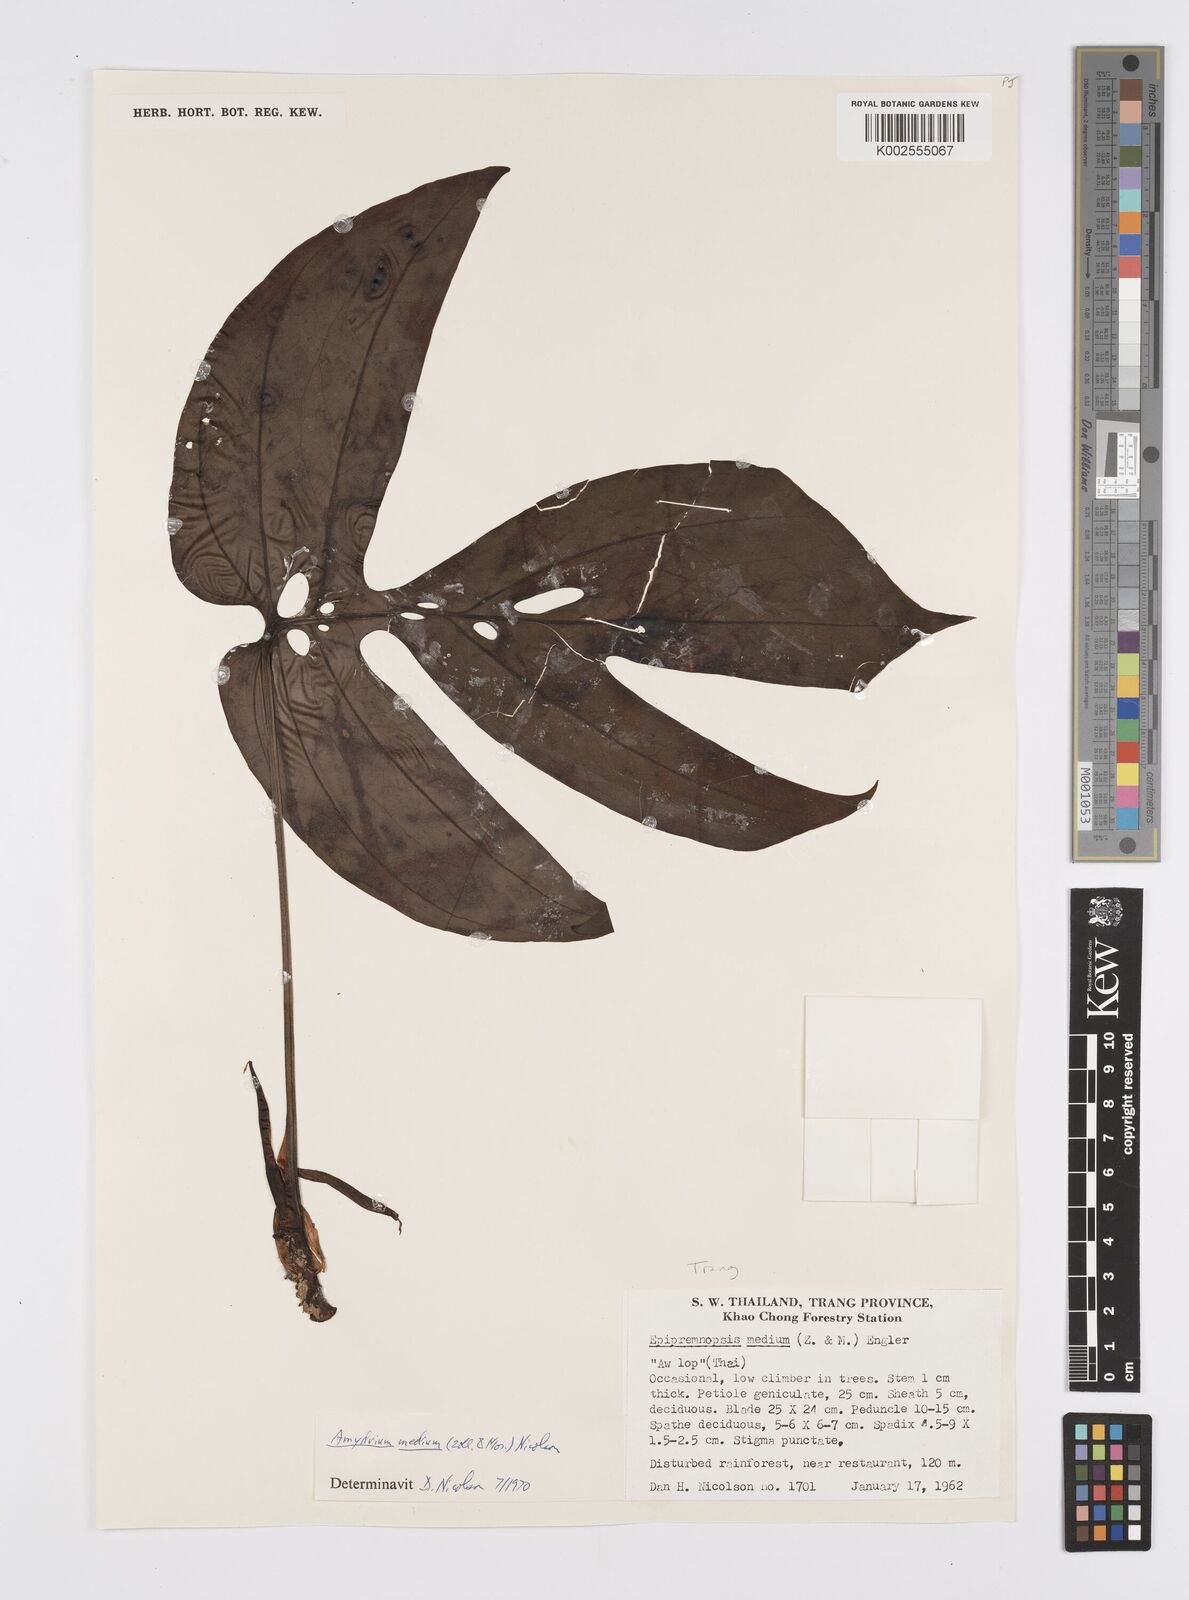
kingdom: Plantae
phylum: Tracheophyta
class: Liliopsida
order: Alismatales
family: Araceae
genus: Amydrium
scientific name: Amydrium medium
